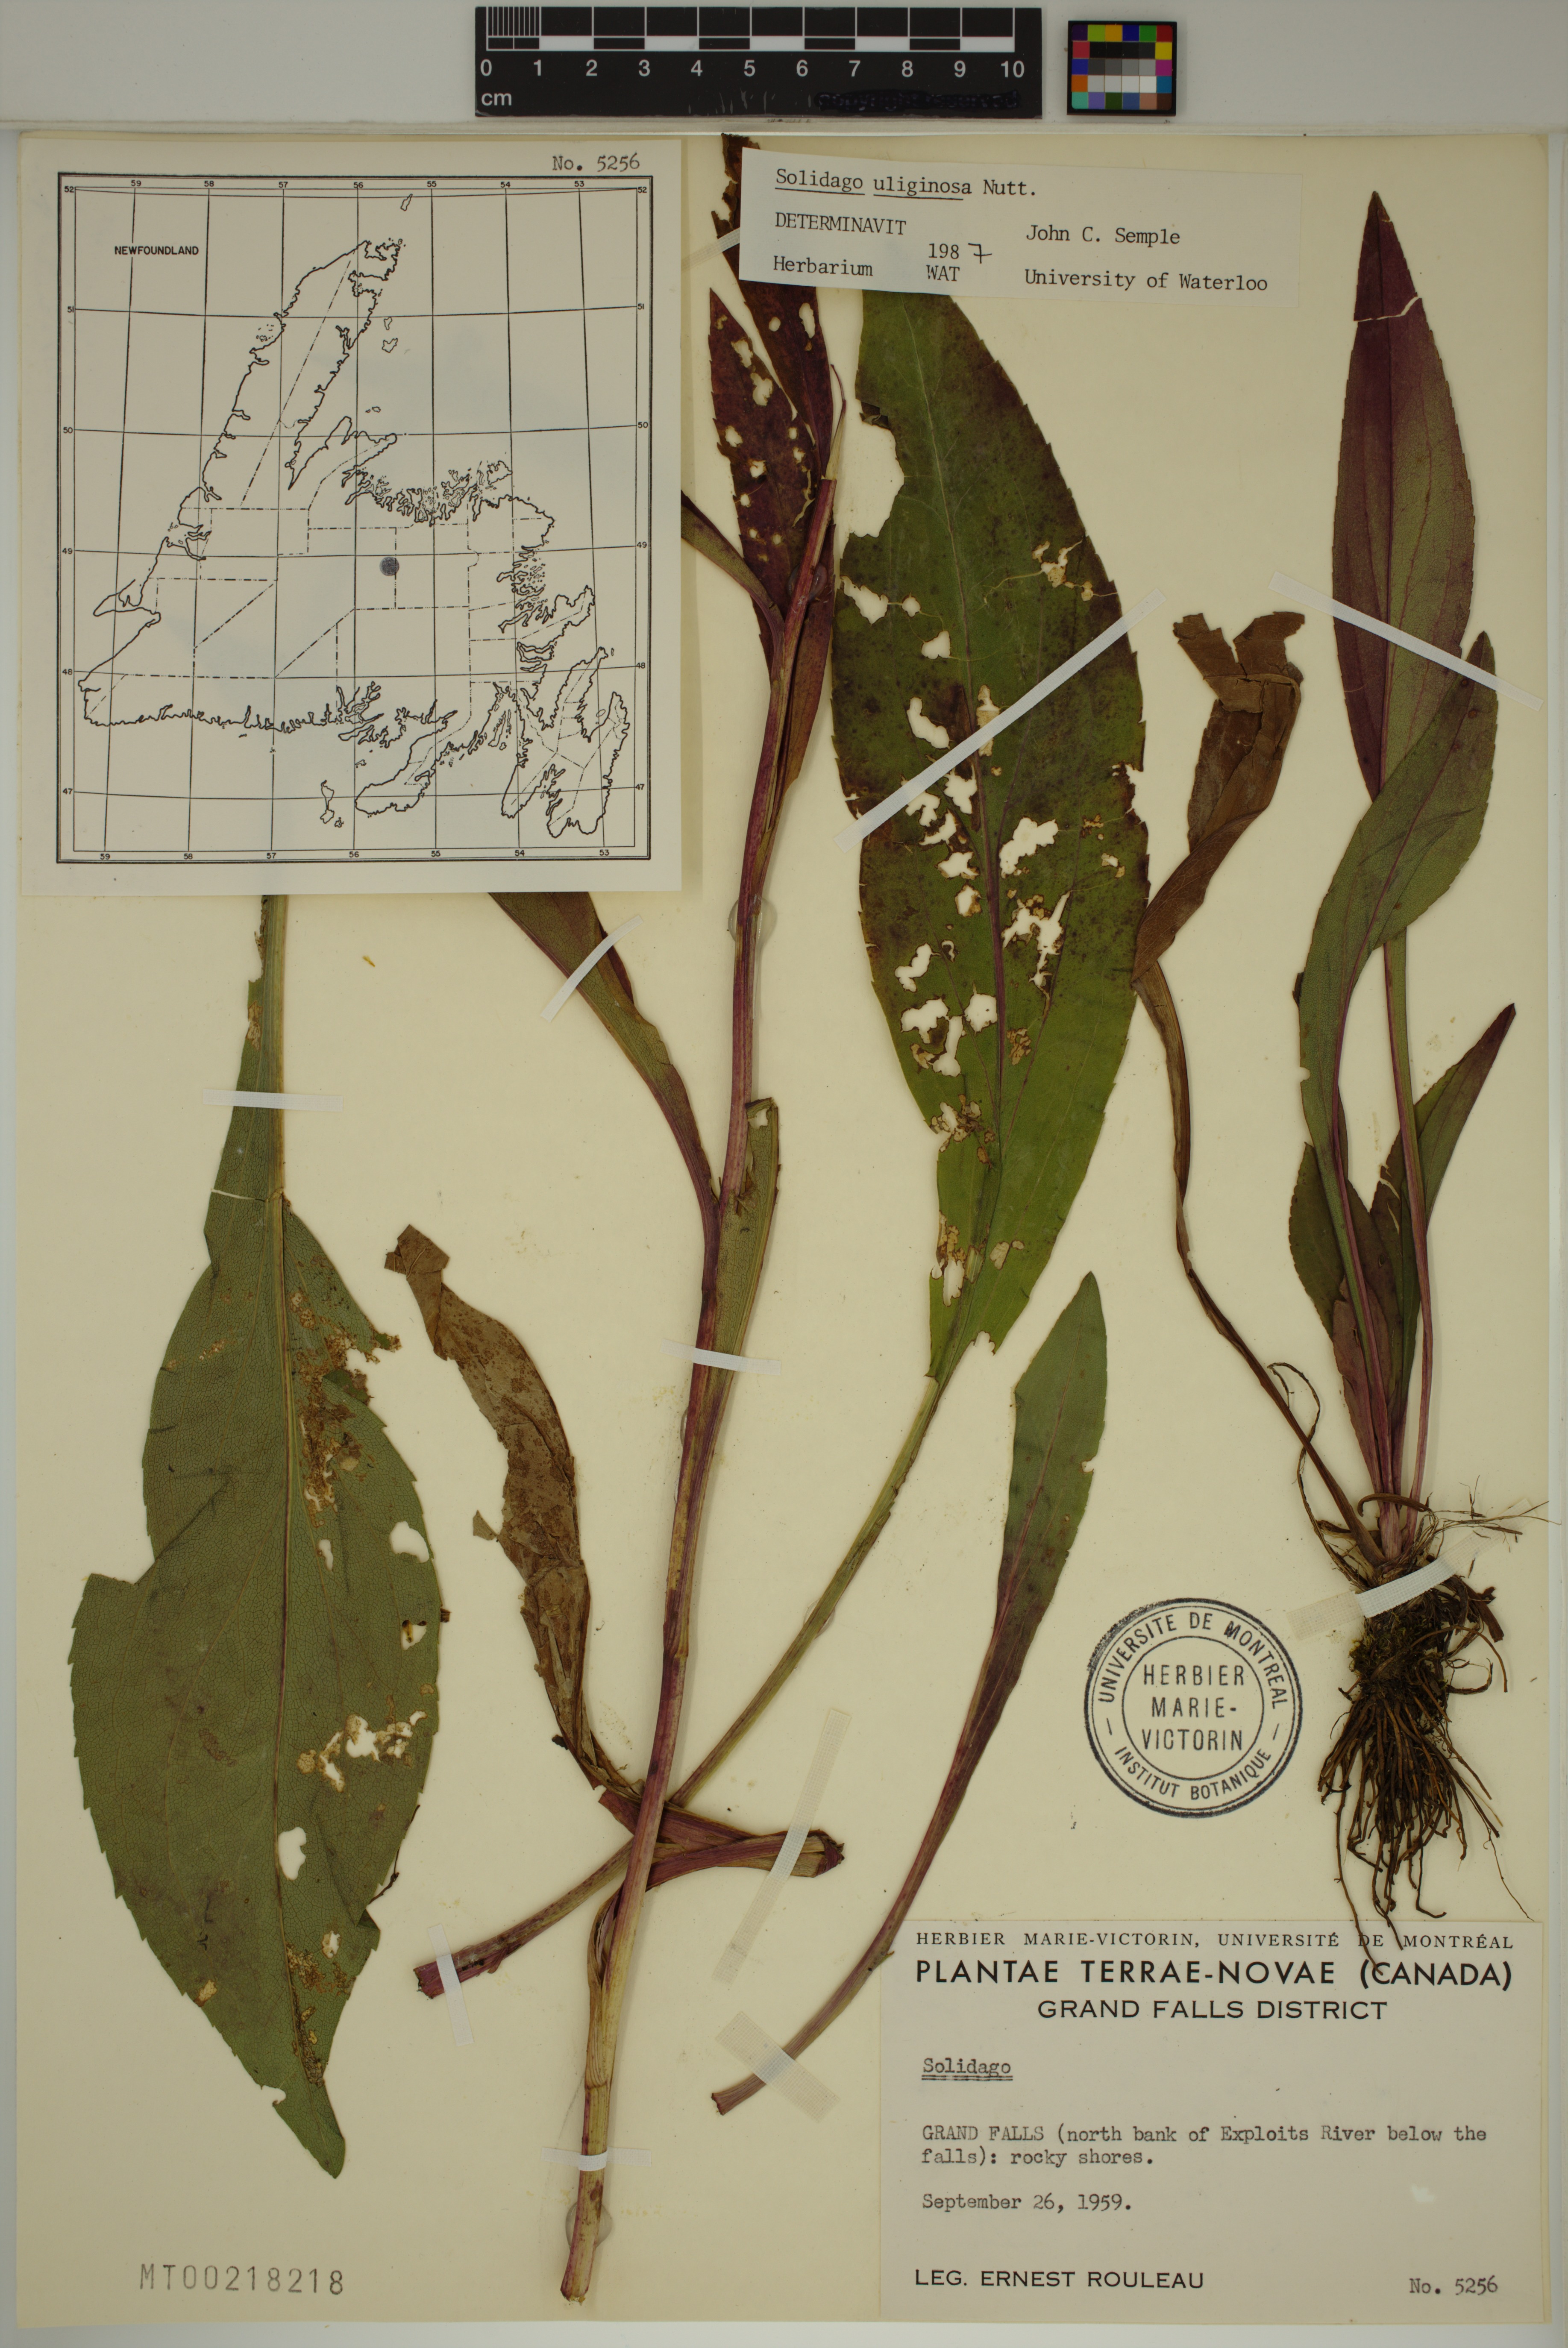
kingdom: Plantae
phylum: Tracheophyta
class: Magnoliopsida
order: Asterales
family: Asteraceae
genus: Solidago
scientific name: Solidago uliginosa
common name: Bog goldenrod
